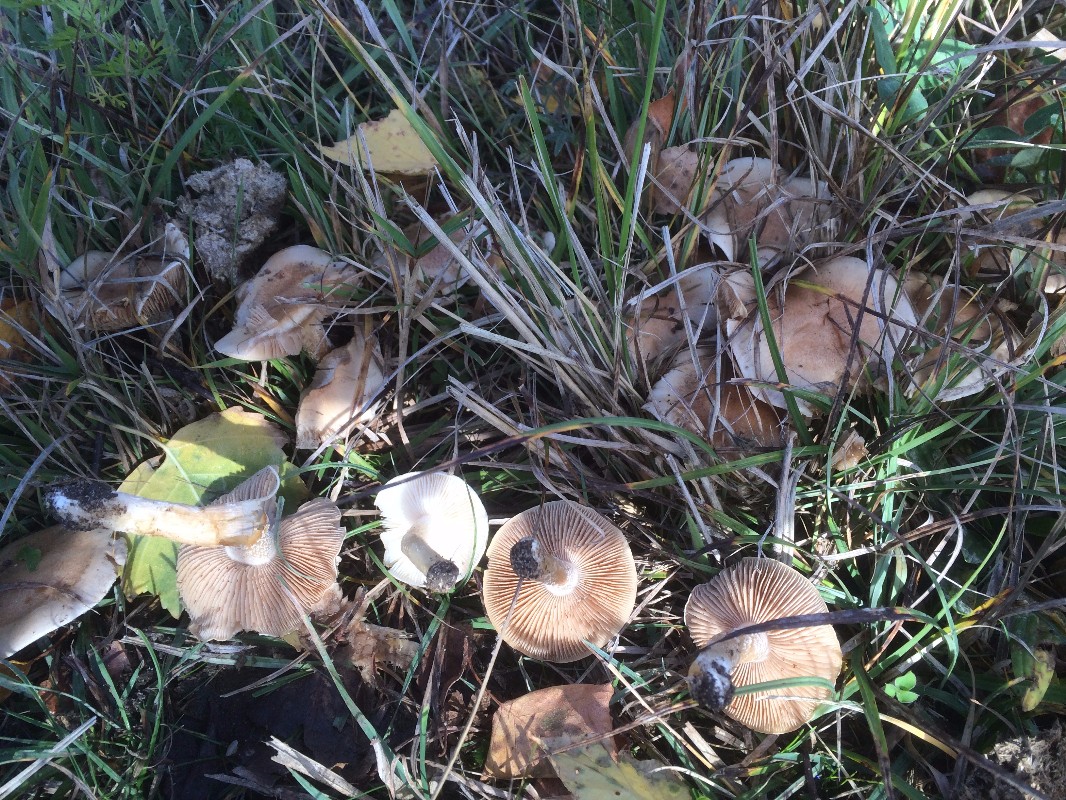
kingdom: Fungi
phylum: Basidiomycota
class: Agaricomycetes
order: Agaricales
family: Hymenogastraceae
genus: Hebeloma
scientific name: Hebeloma
